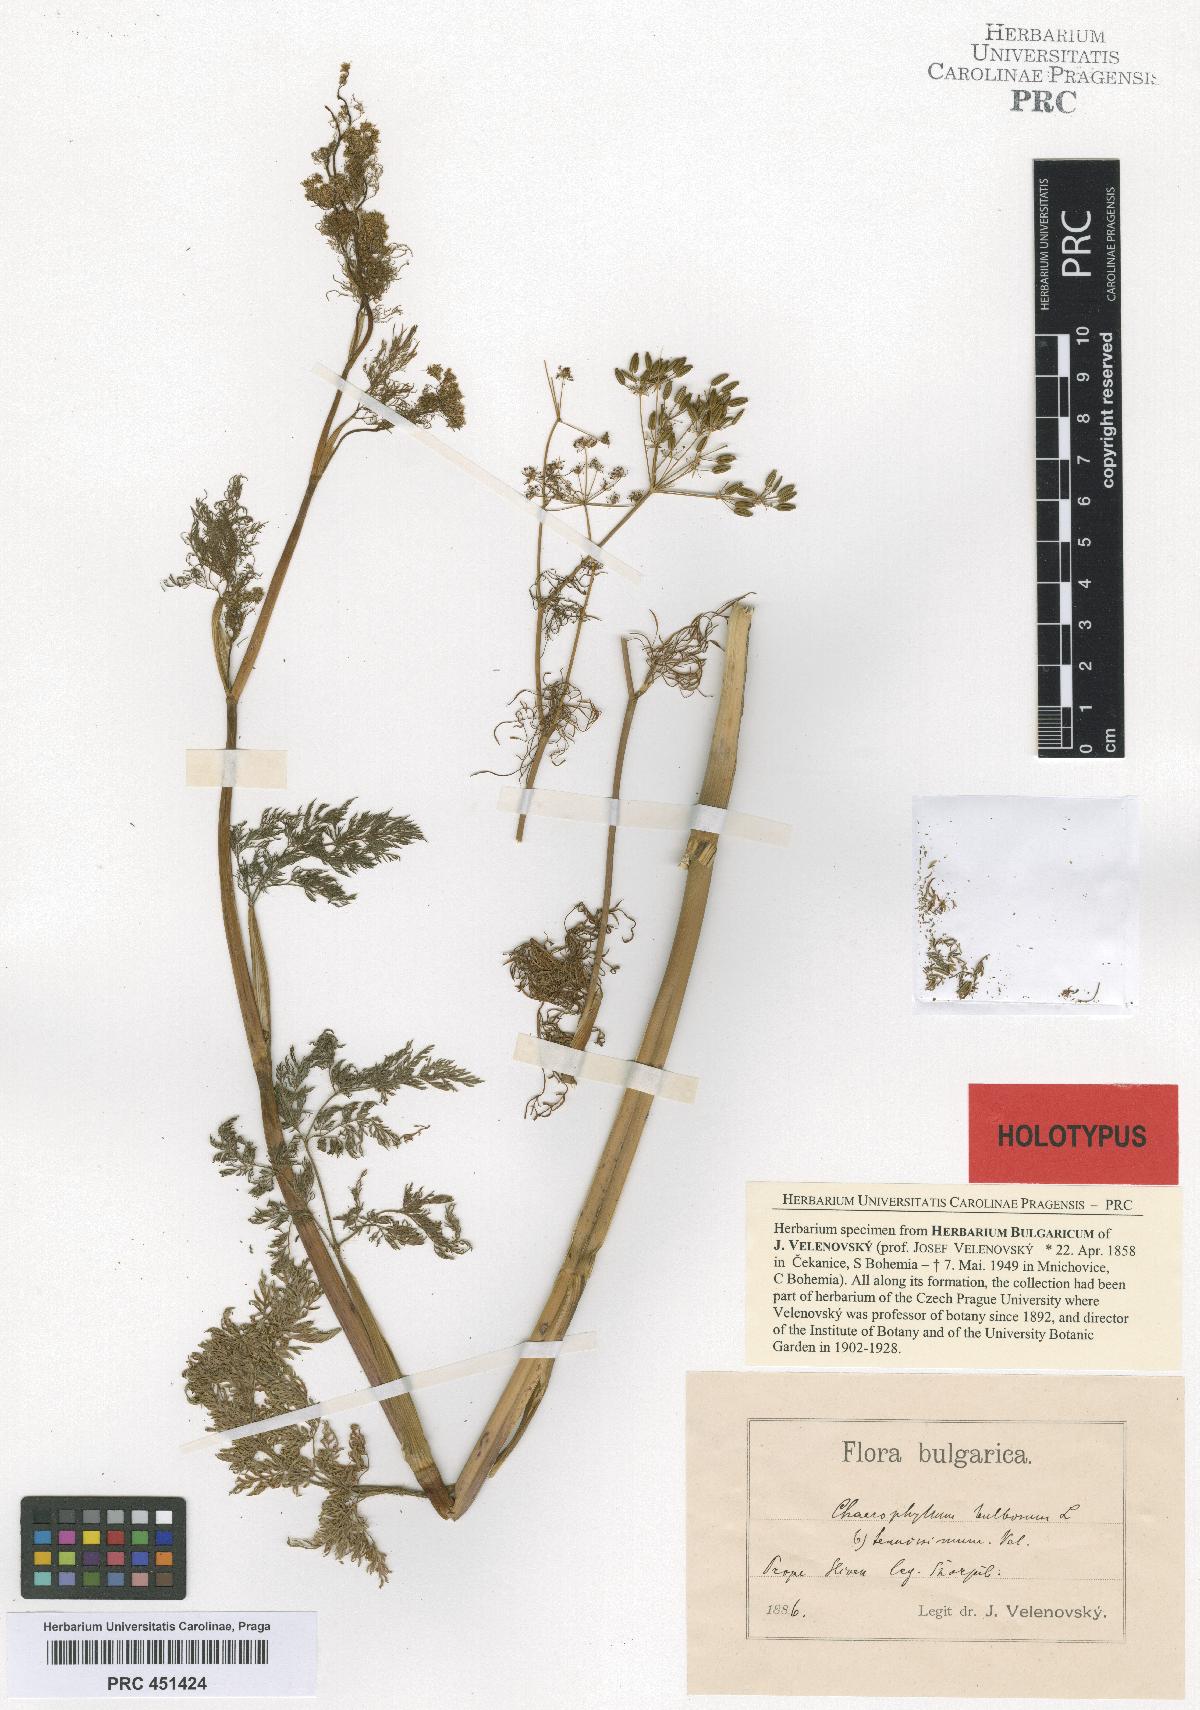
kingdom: Plantae
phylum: Tracheophyta
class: Magnoliopsida
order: Apiales
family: Apiaceae
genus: Chaerophyllum
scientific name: Chaerophyllum bulbosum
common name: Bulbous chervil
